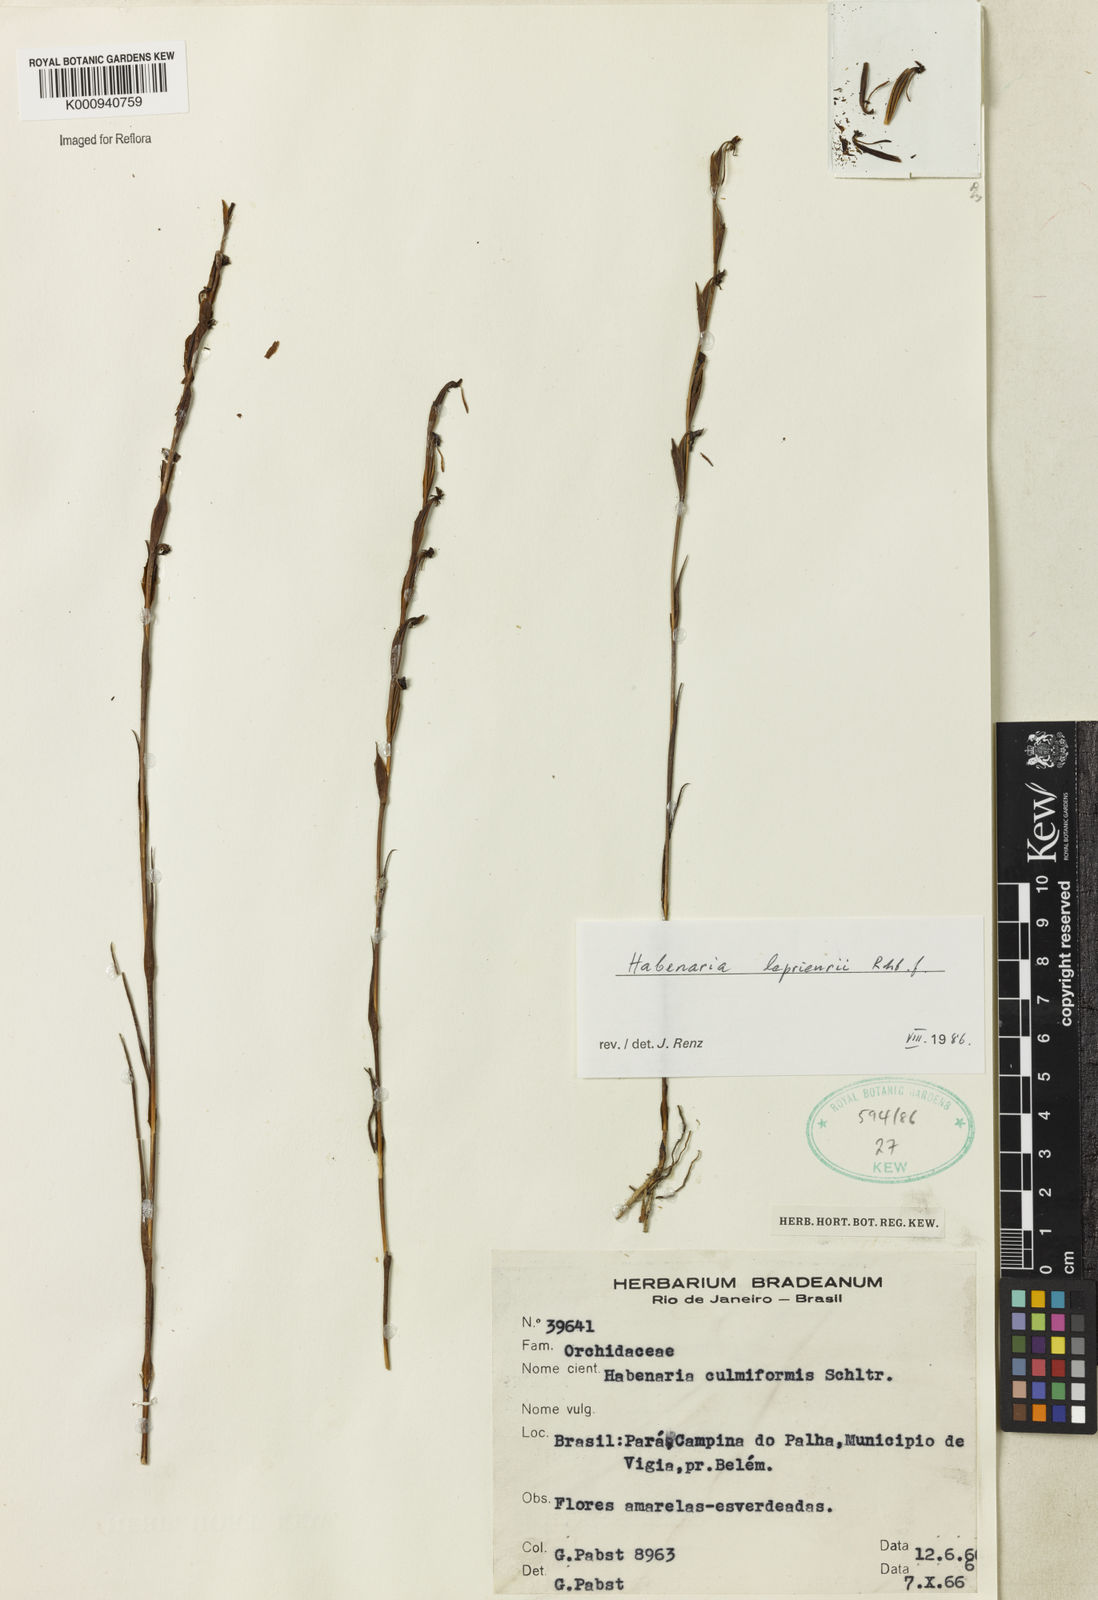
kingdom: Plantae
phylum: Tracheophyta
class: Liliopsida
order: Asparagales
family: Orchidaceae
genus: Habenaria
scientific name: Habenaria leprieurii
